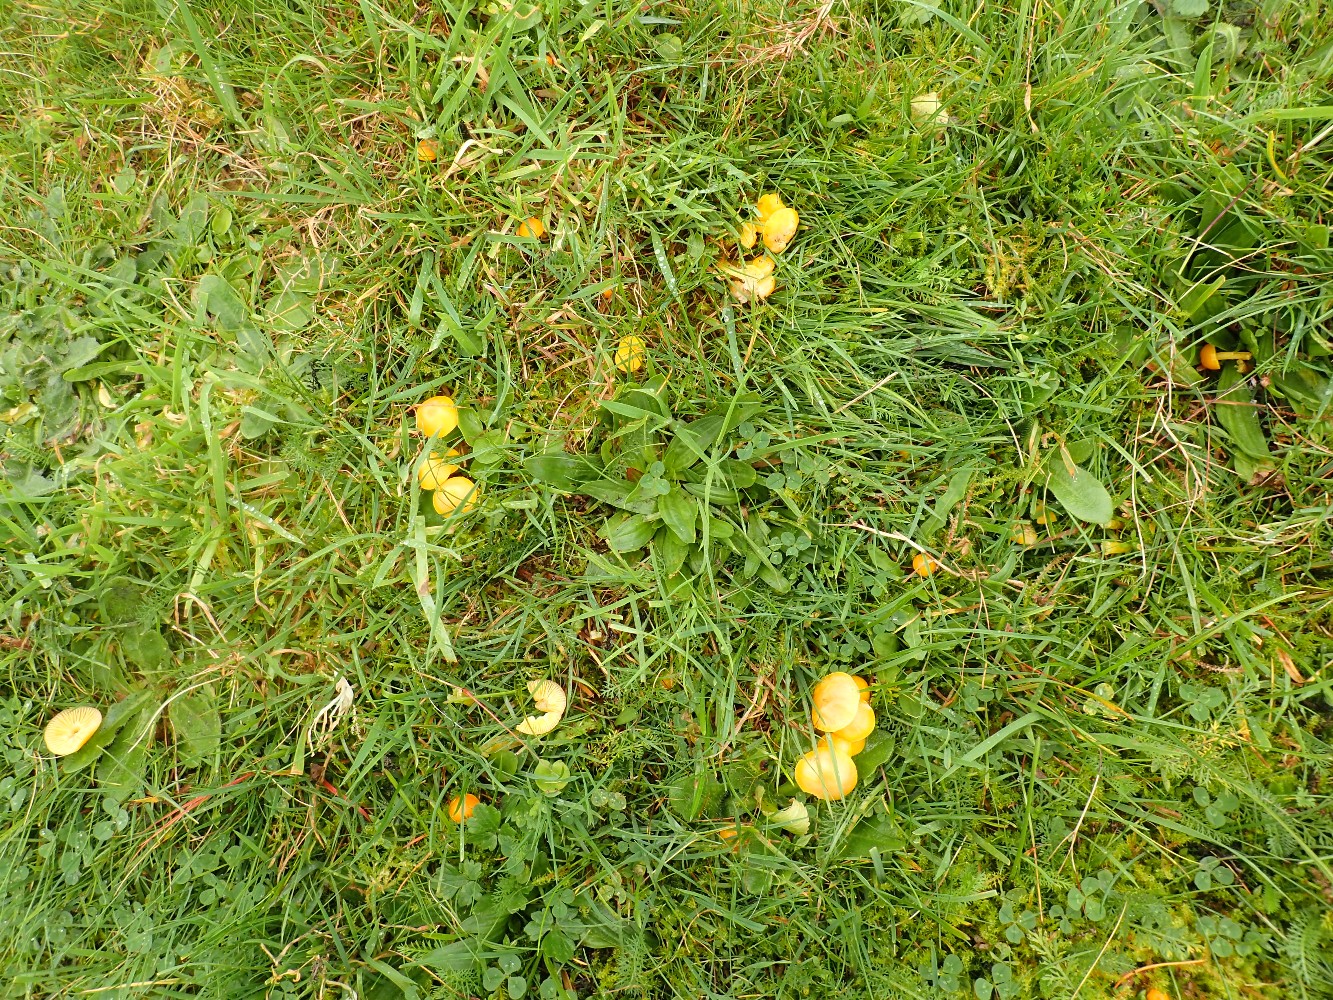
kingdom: Fungi
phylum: Basidiomycota
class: Agaricomycetes
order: Agaricales
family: Hygrophoraceae
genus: Hygrocybe
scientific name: Hygrocybe ceracea
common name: voksgul vokshat
